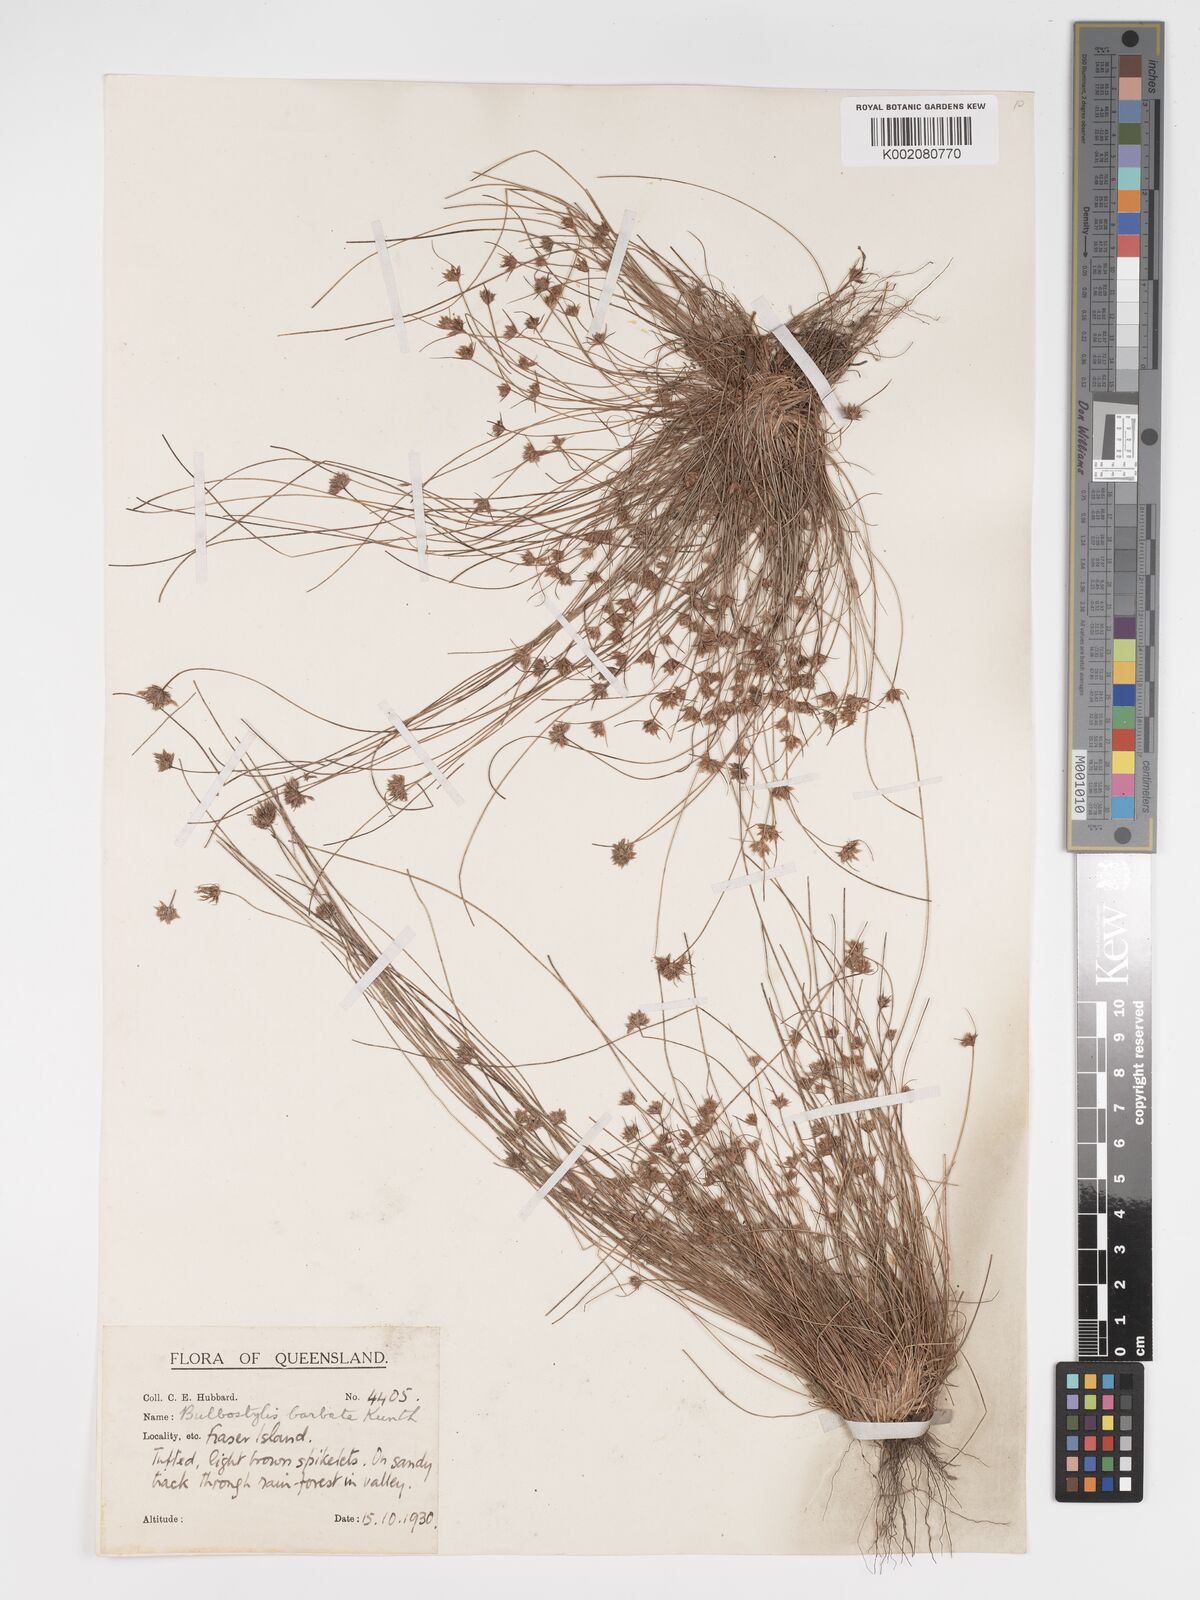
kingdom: Plantae
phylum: Tracheophyta
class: Liliopsida
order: Poales
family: Cyperaceae
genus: Bulbostylis
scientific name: Bulbostylis barbata
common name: Watergrass
